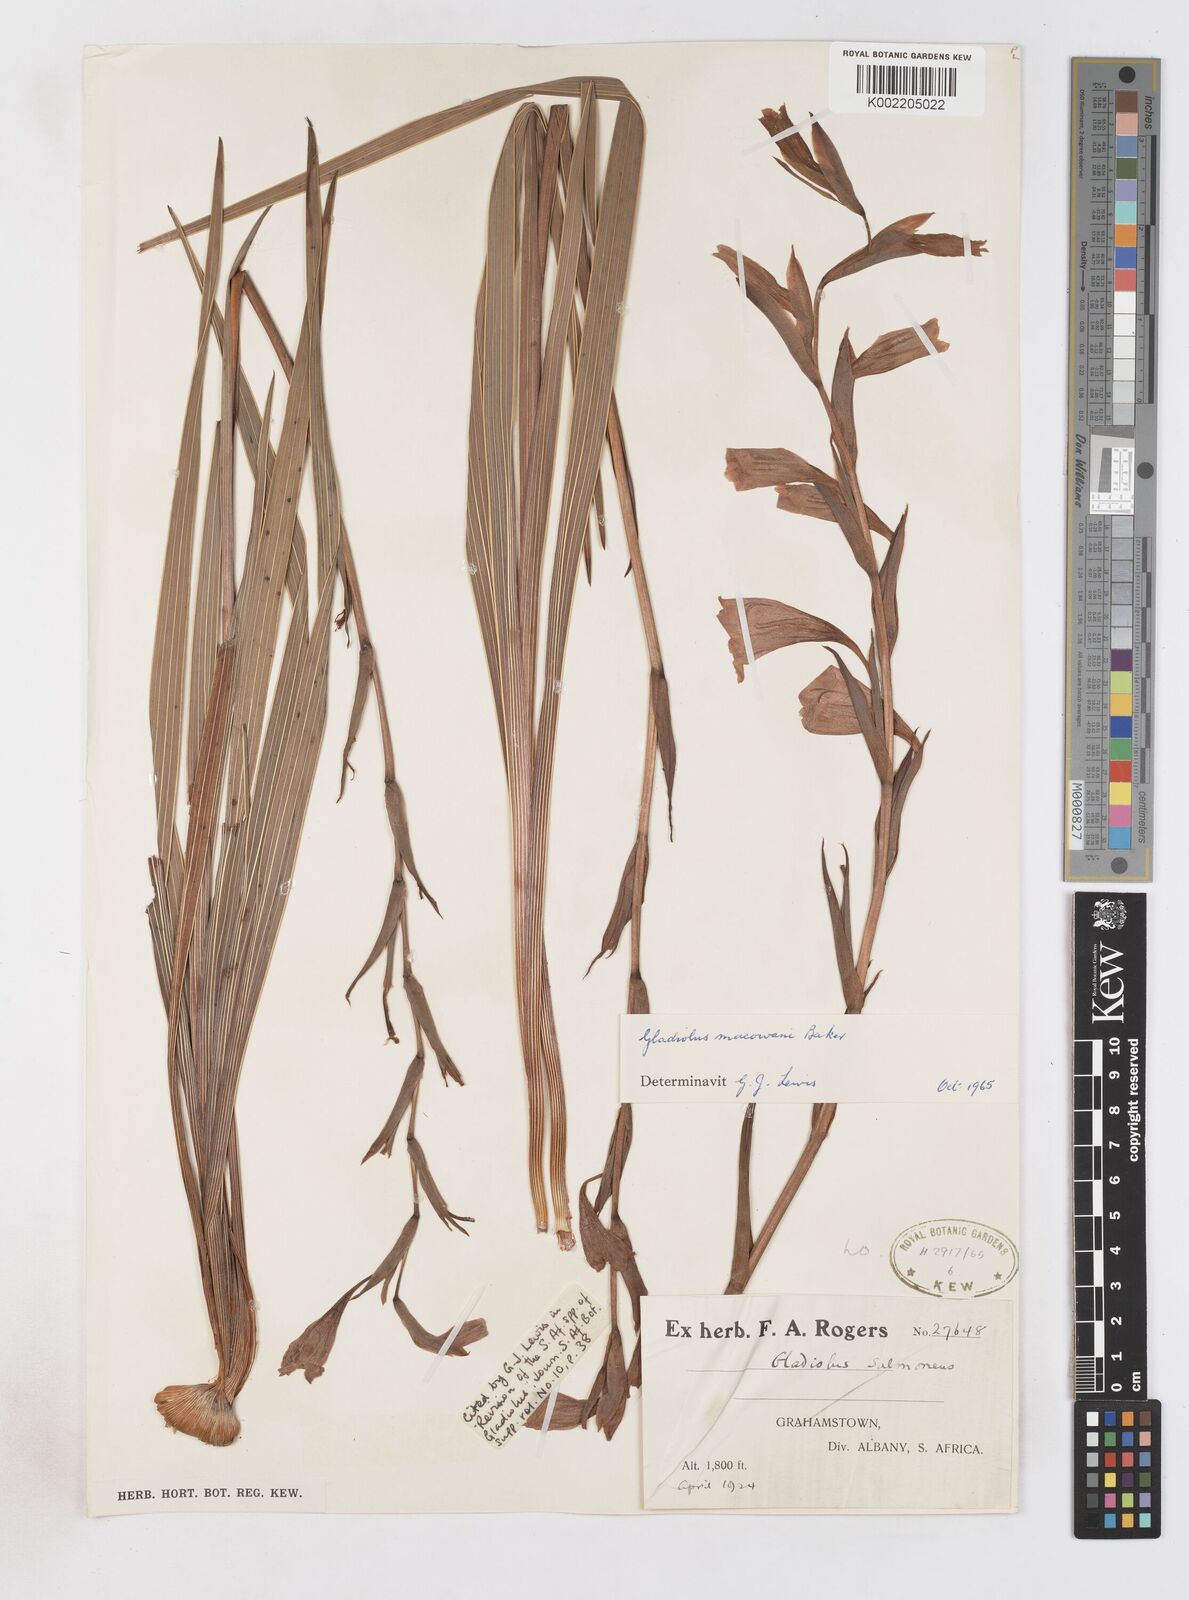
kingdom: Plantae
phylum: Tracheophyta
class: Liliopsida
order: Asparagales
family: Iridaceae
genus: Gladiolus
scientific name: Gladiolus mortonius
